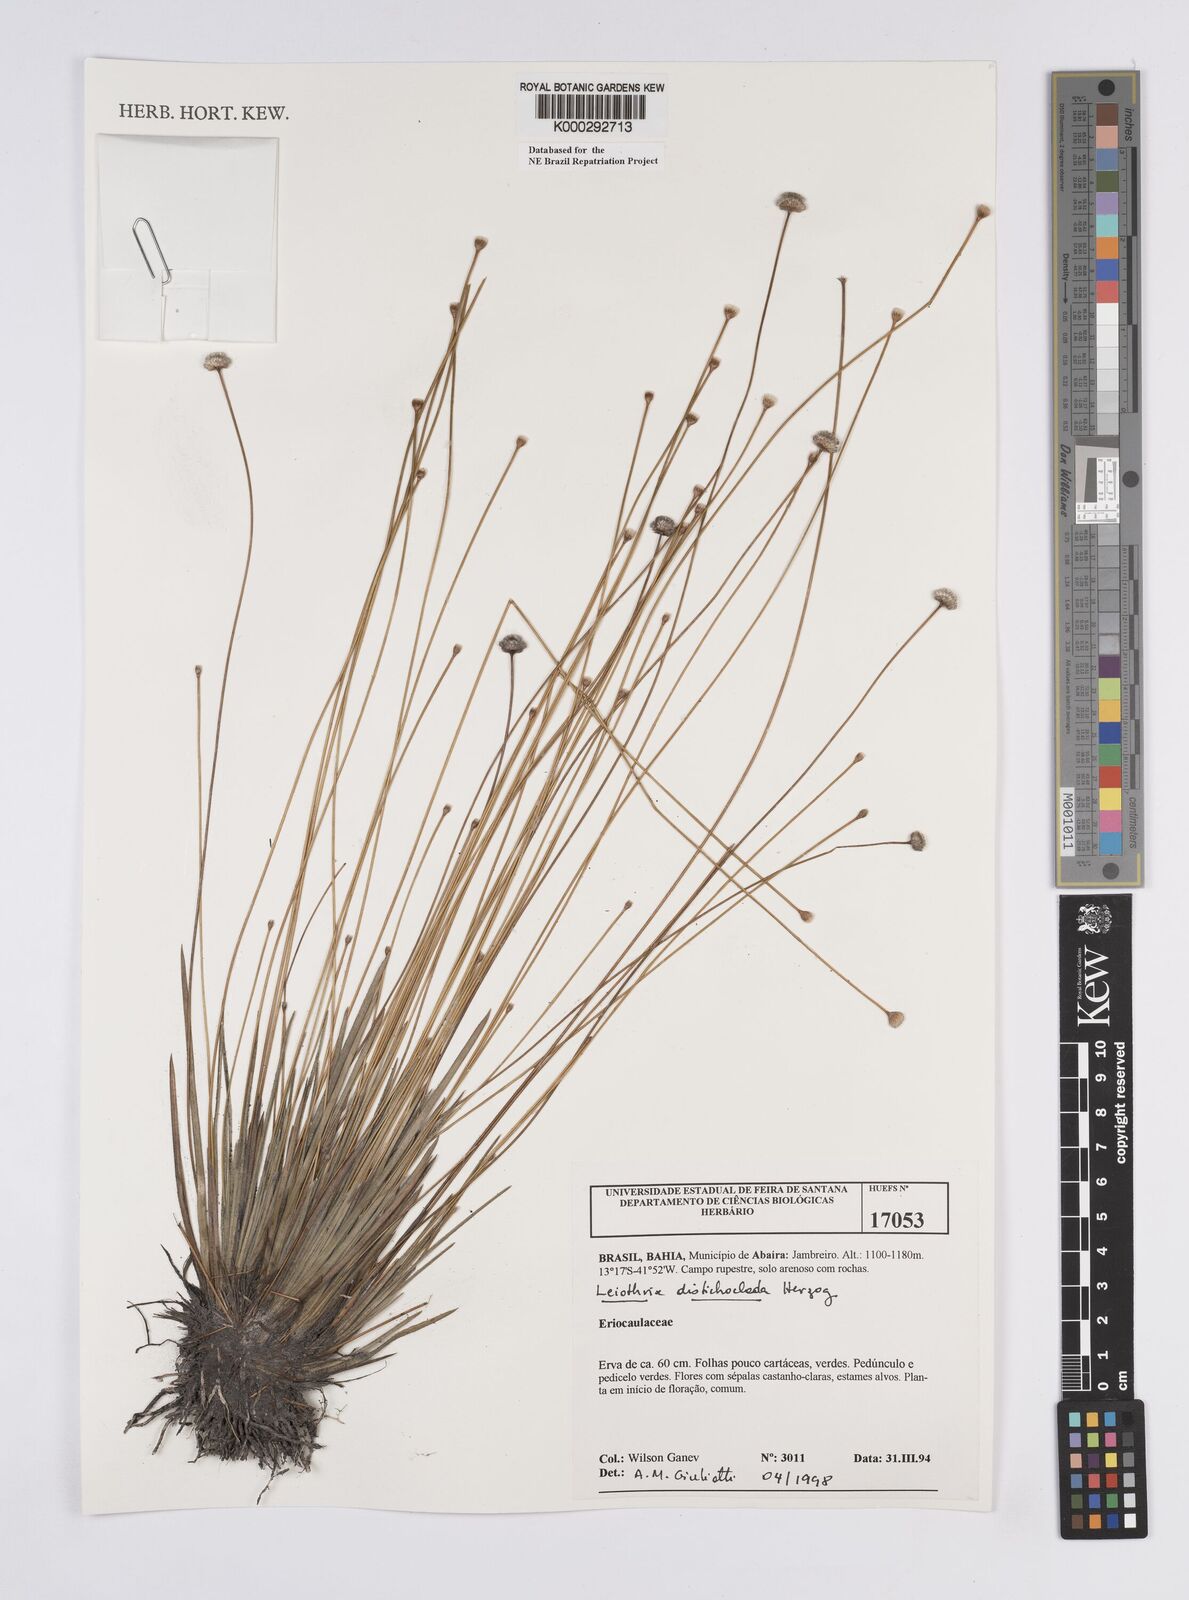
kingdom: Plantae
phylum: Tracheophyta
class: Liliopsida
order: Poales
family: Eriocaulaceae
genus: Leiothrix
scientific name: Leiothrix distichoclada
